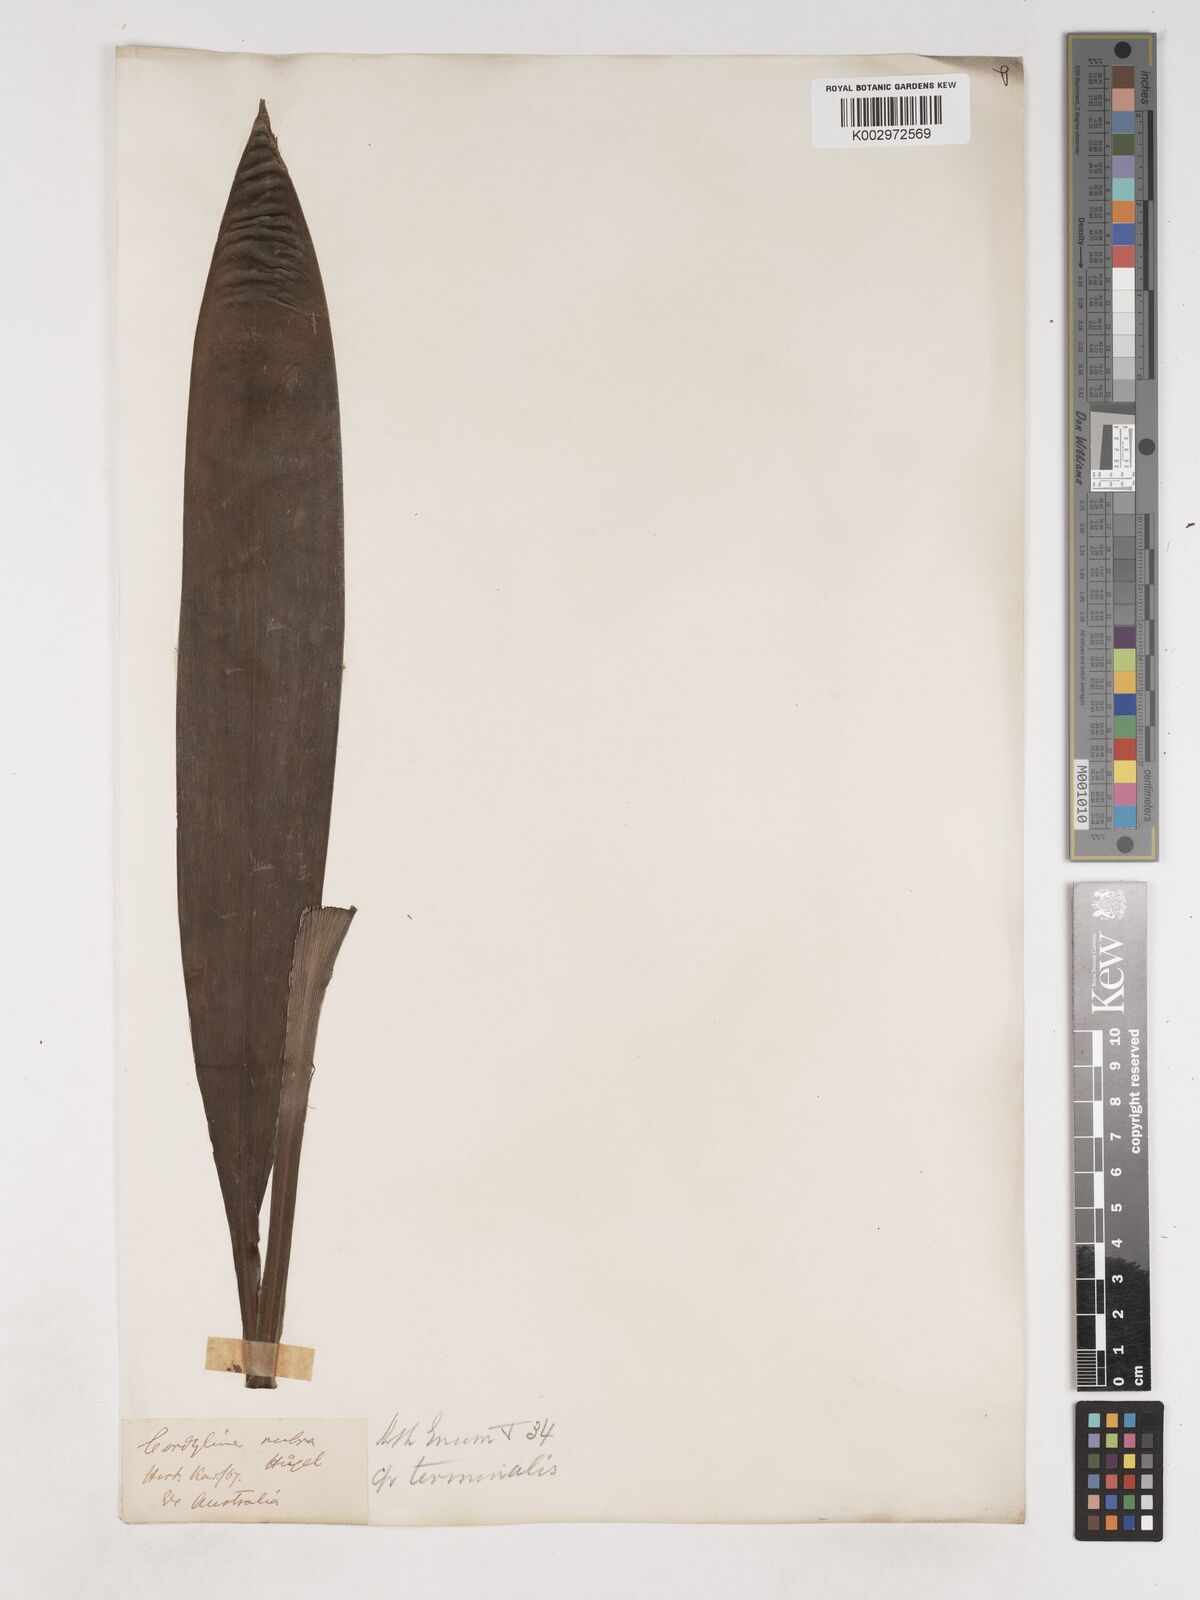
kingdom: Plantae
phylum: Tracheophyta
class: Liliopsida
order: Asparagales
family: Asparagaceae
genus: Cordyline
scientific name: Cordyline fruticosa
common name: Good-luck-plant
